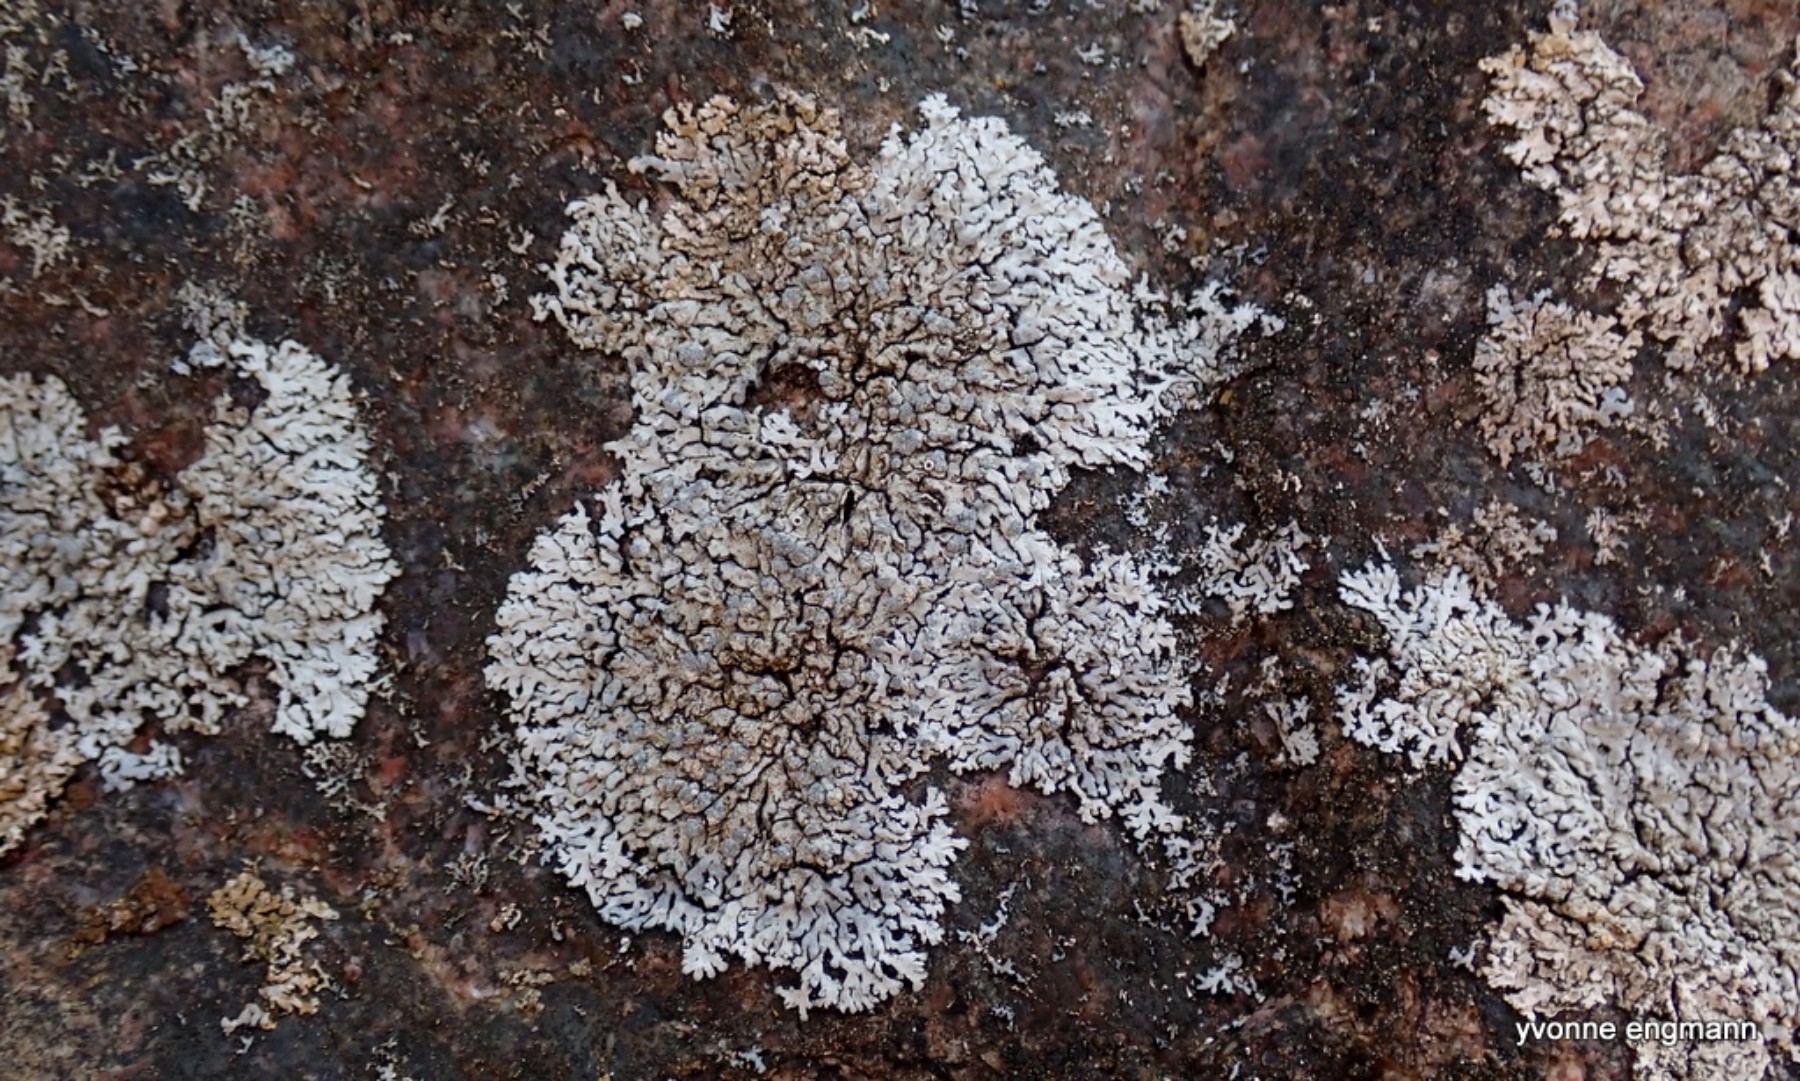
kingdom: Fungi
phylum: Ascomycota
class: Lecanoromycetes
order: Caliciales
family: Physciaceae
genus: Physcia
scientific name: Physcia caesia
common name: blågrå rosetlav
